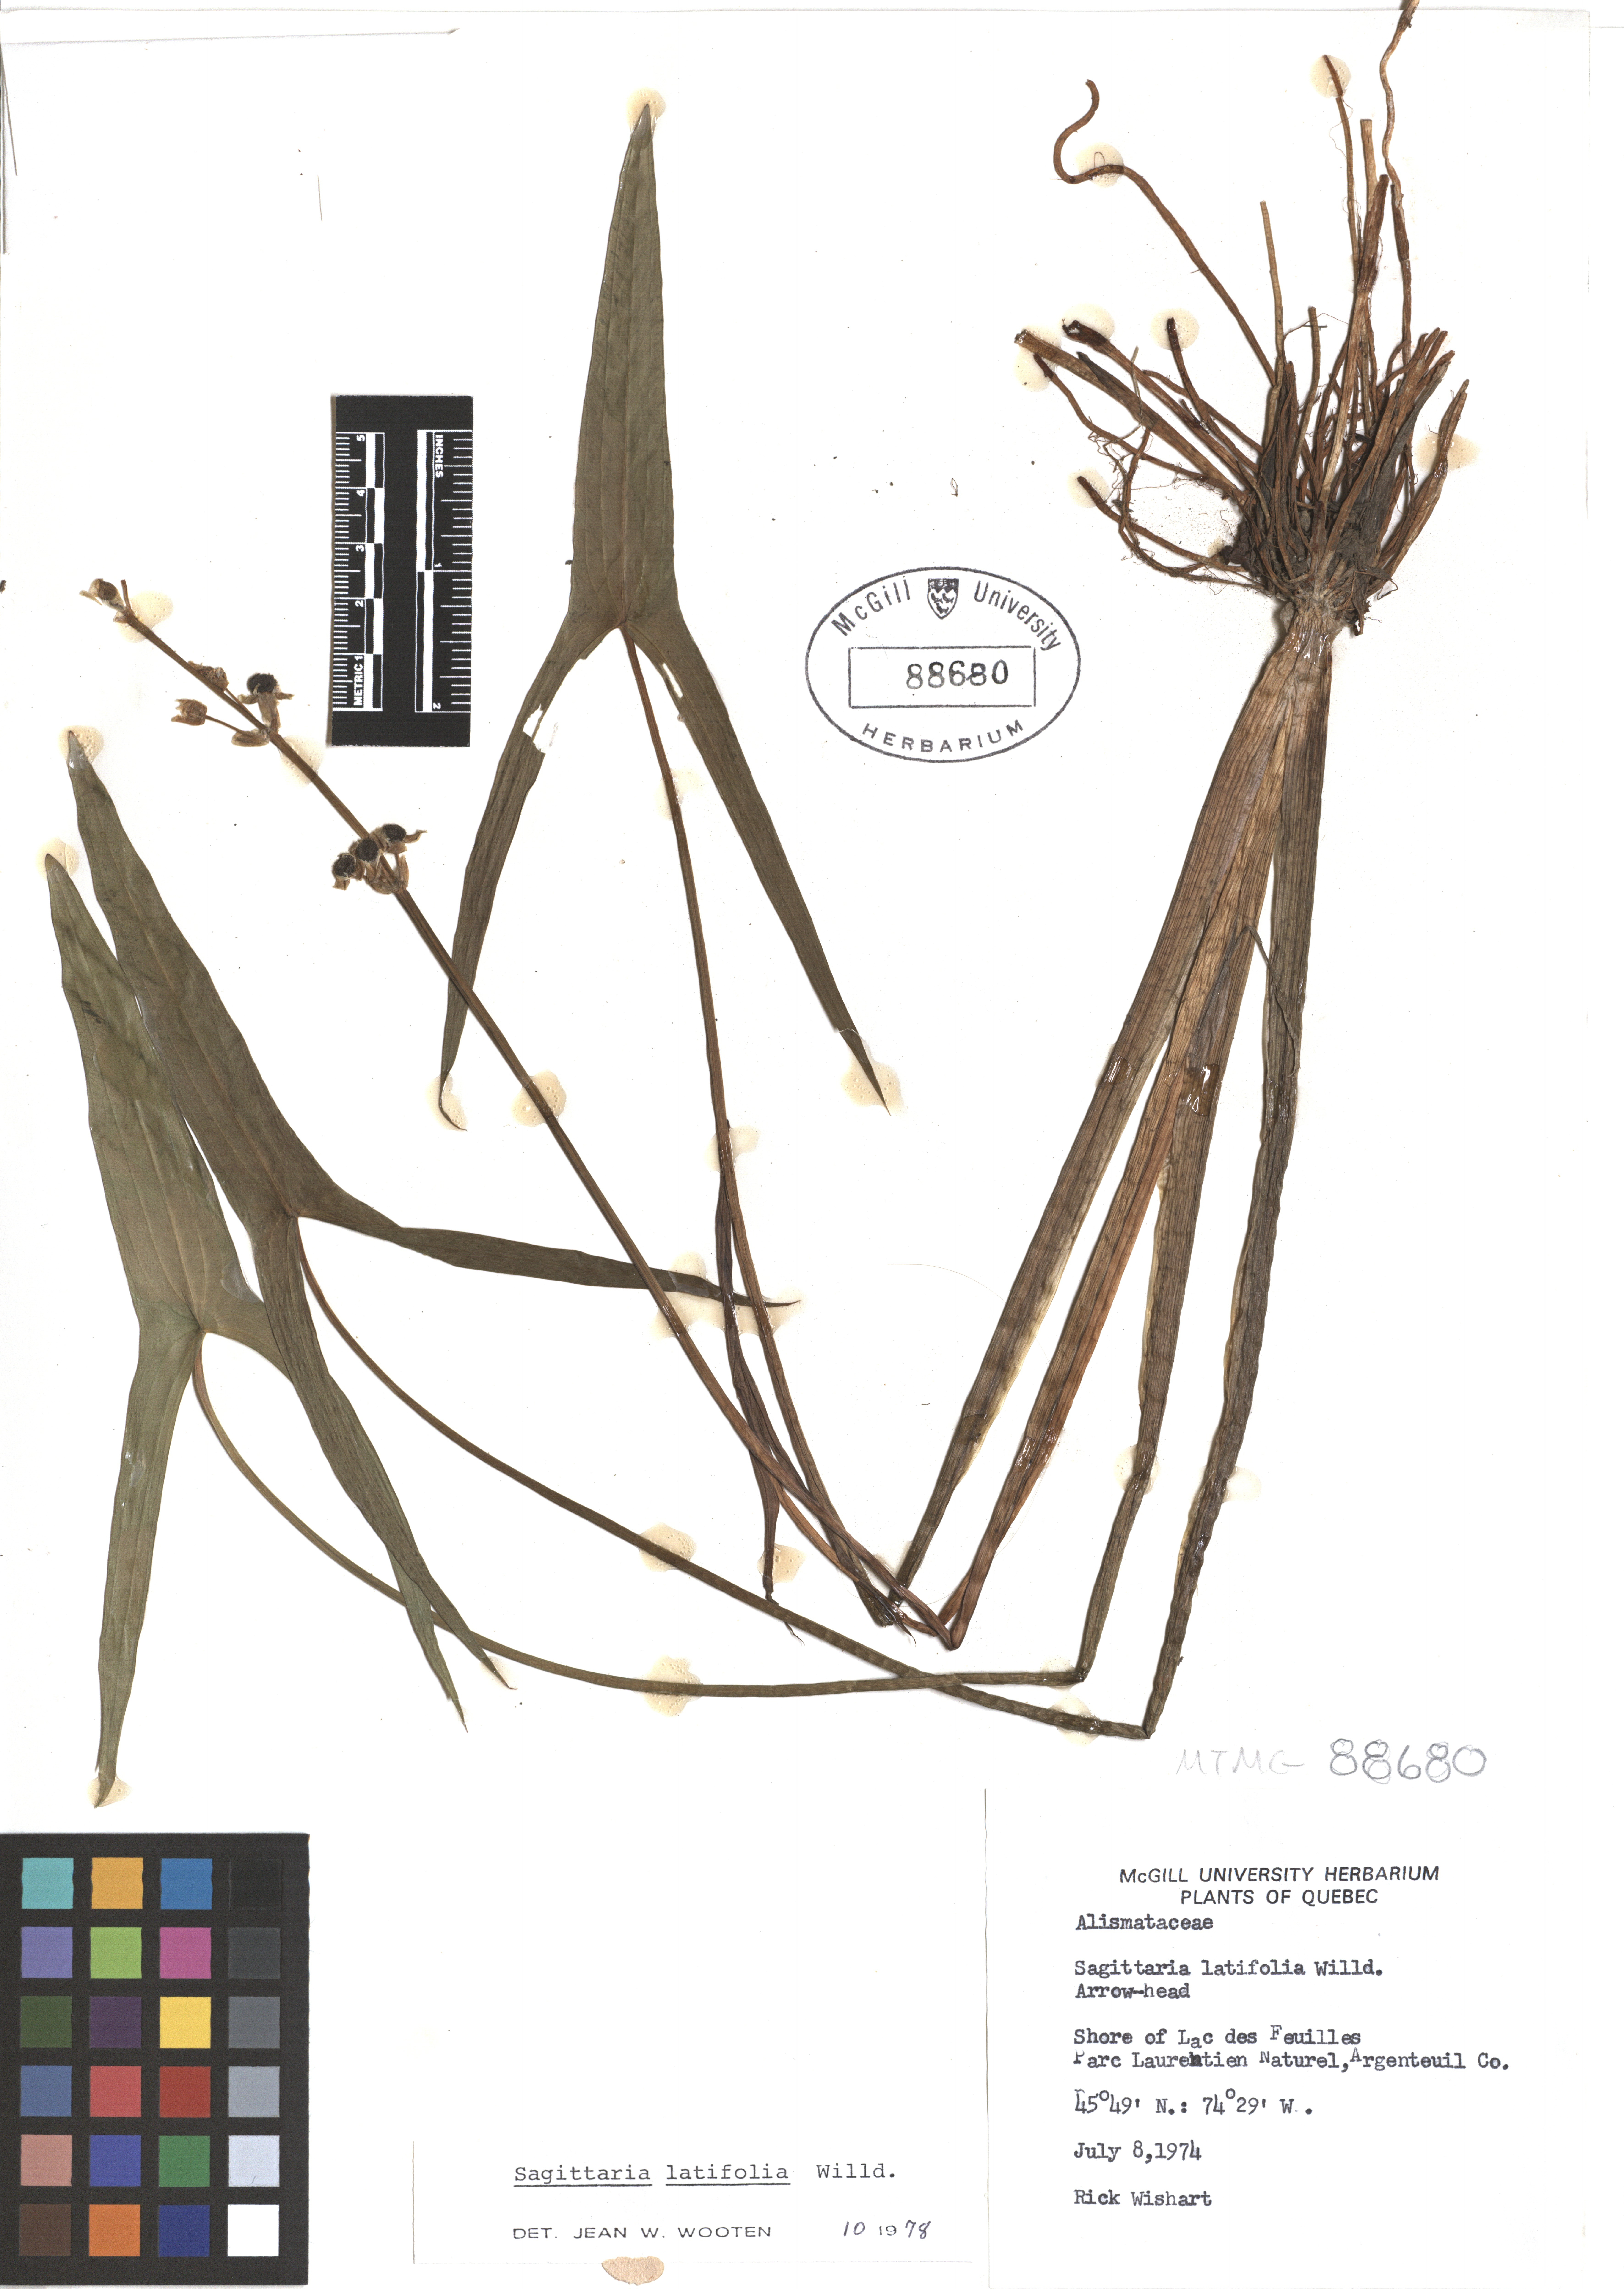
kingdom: Plantae
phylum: Tracheophyta
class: Liliopsida
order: Alismatales
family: Alismataceae
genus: Sagittaria
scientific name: Sagittaria latifolia
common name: Duck-potato
